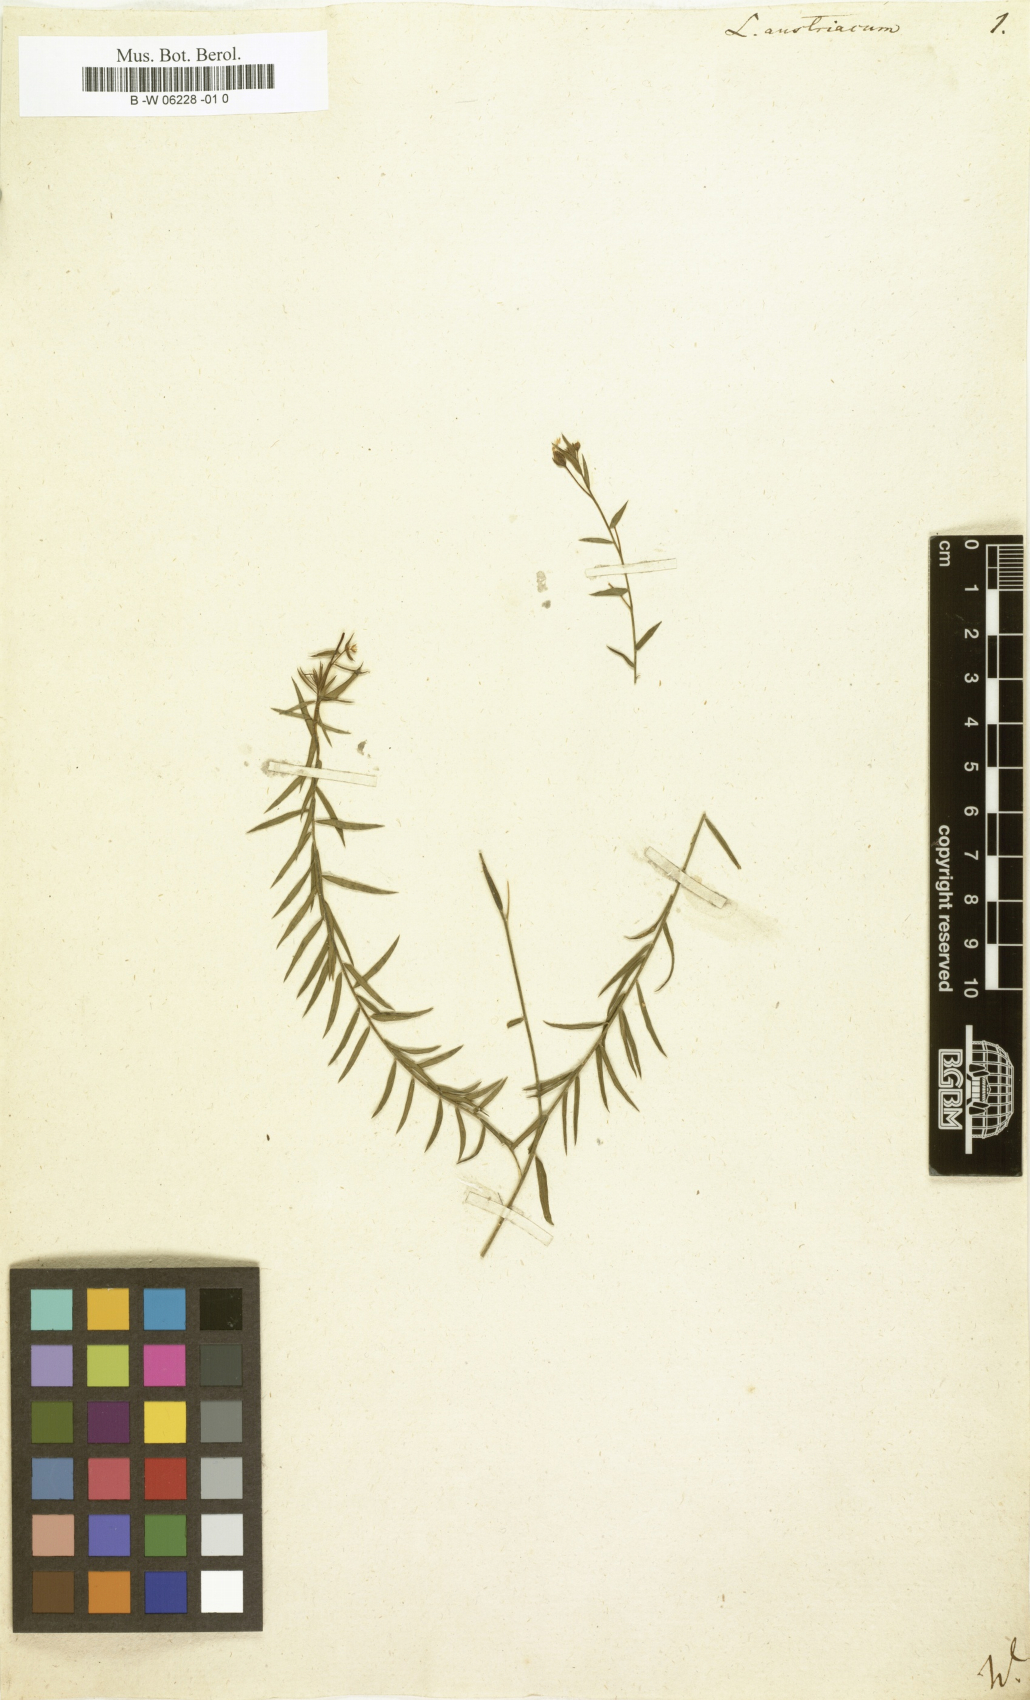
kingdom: Plantae
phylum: Tracheophyta
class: Magnoliopsida
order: Malpighiales
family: Linaceae
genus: Linum
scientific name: Linum austriacum
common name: Austrian flax
